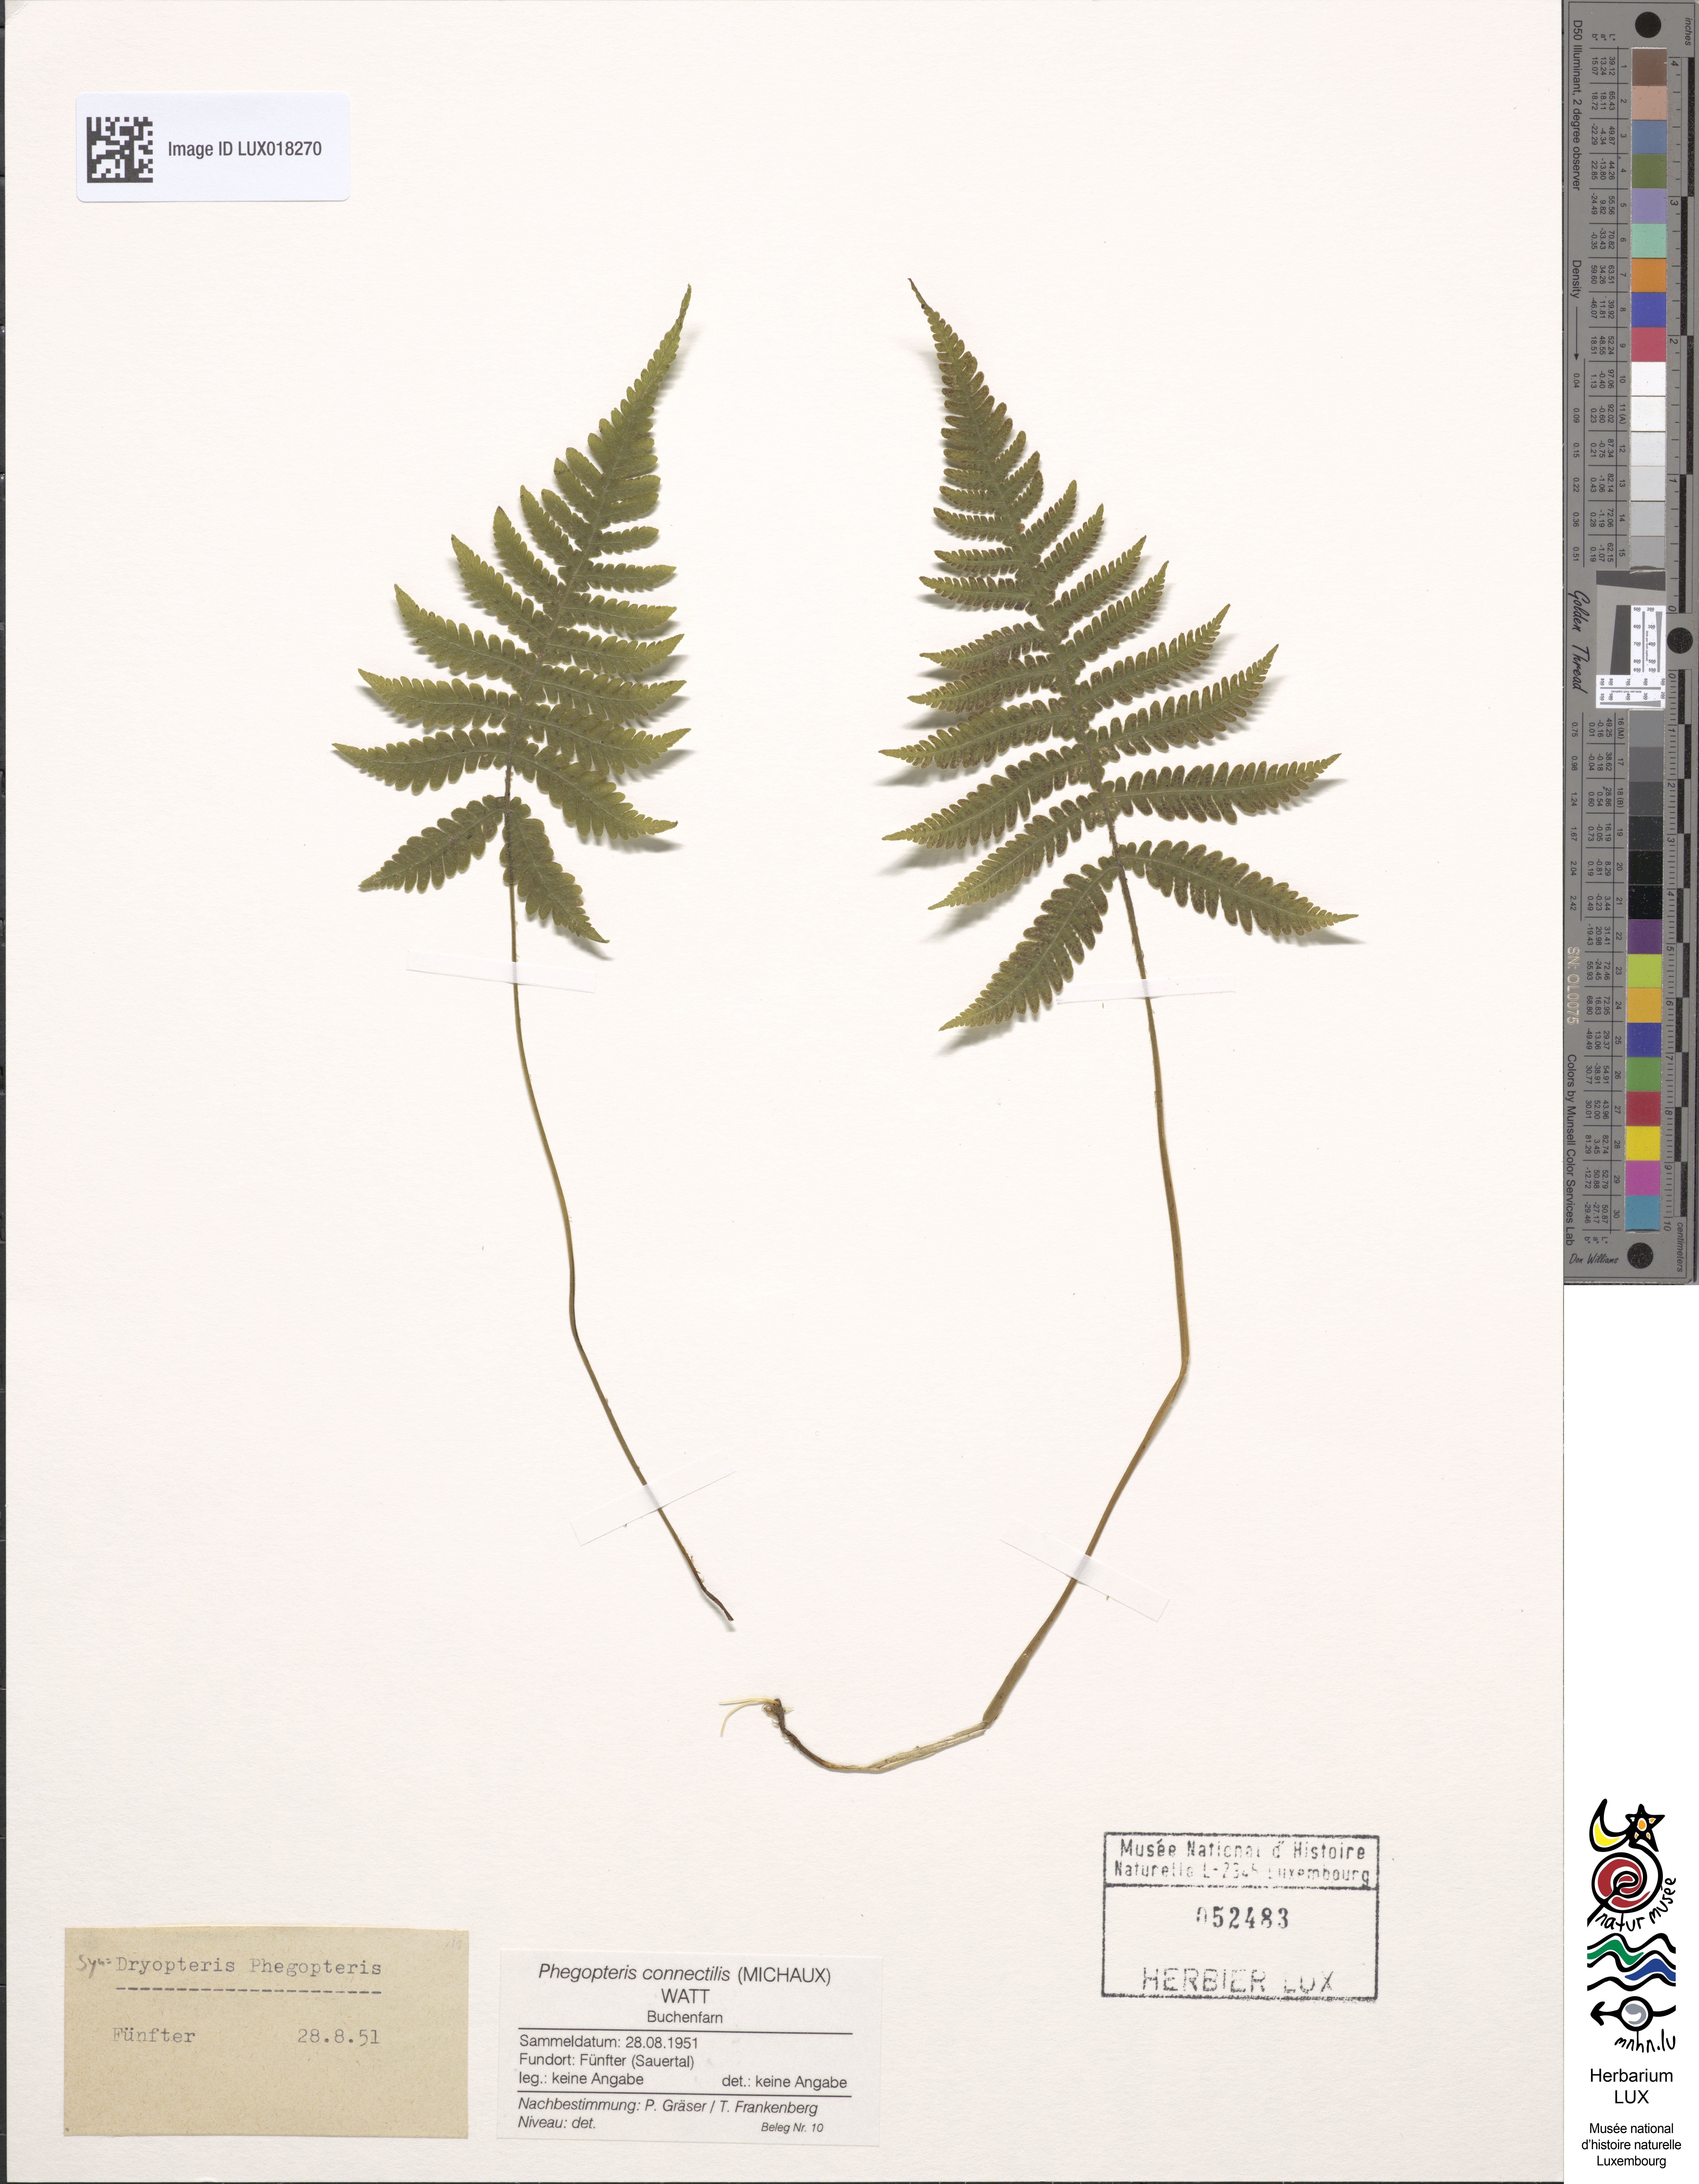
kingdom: Plantae
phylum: Tracheophyta
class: Polypodiopsida
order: Polypodiales
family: Thelypteridaceae
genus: Phegopteris
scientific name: Phegopteris connectilis
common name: Beech fern
